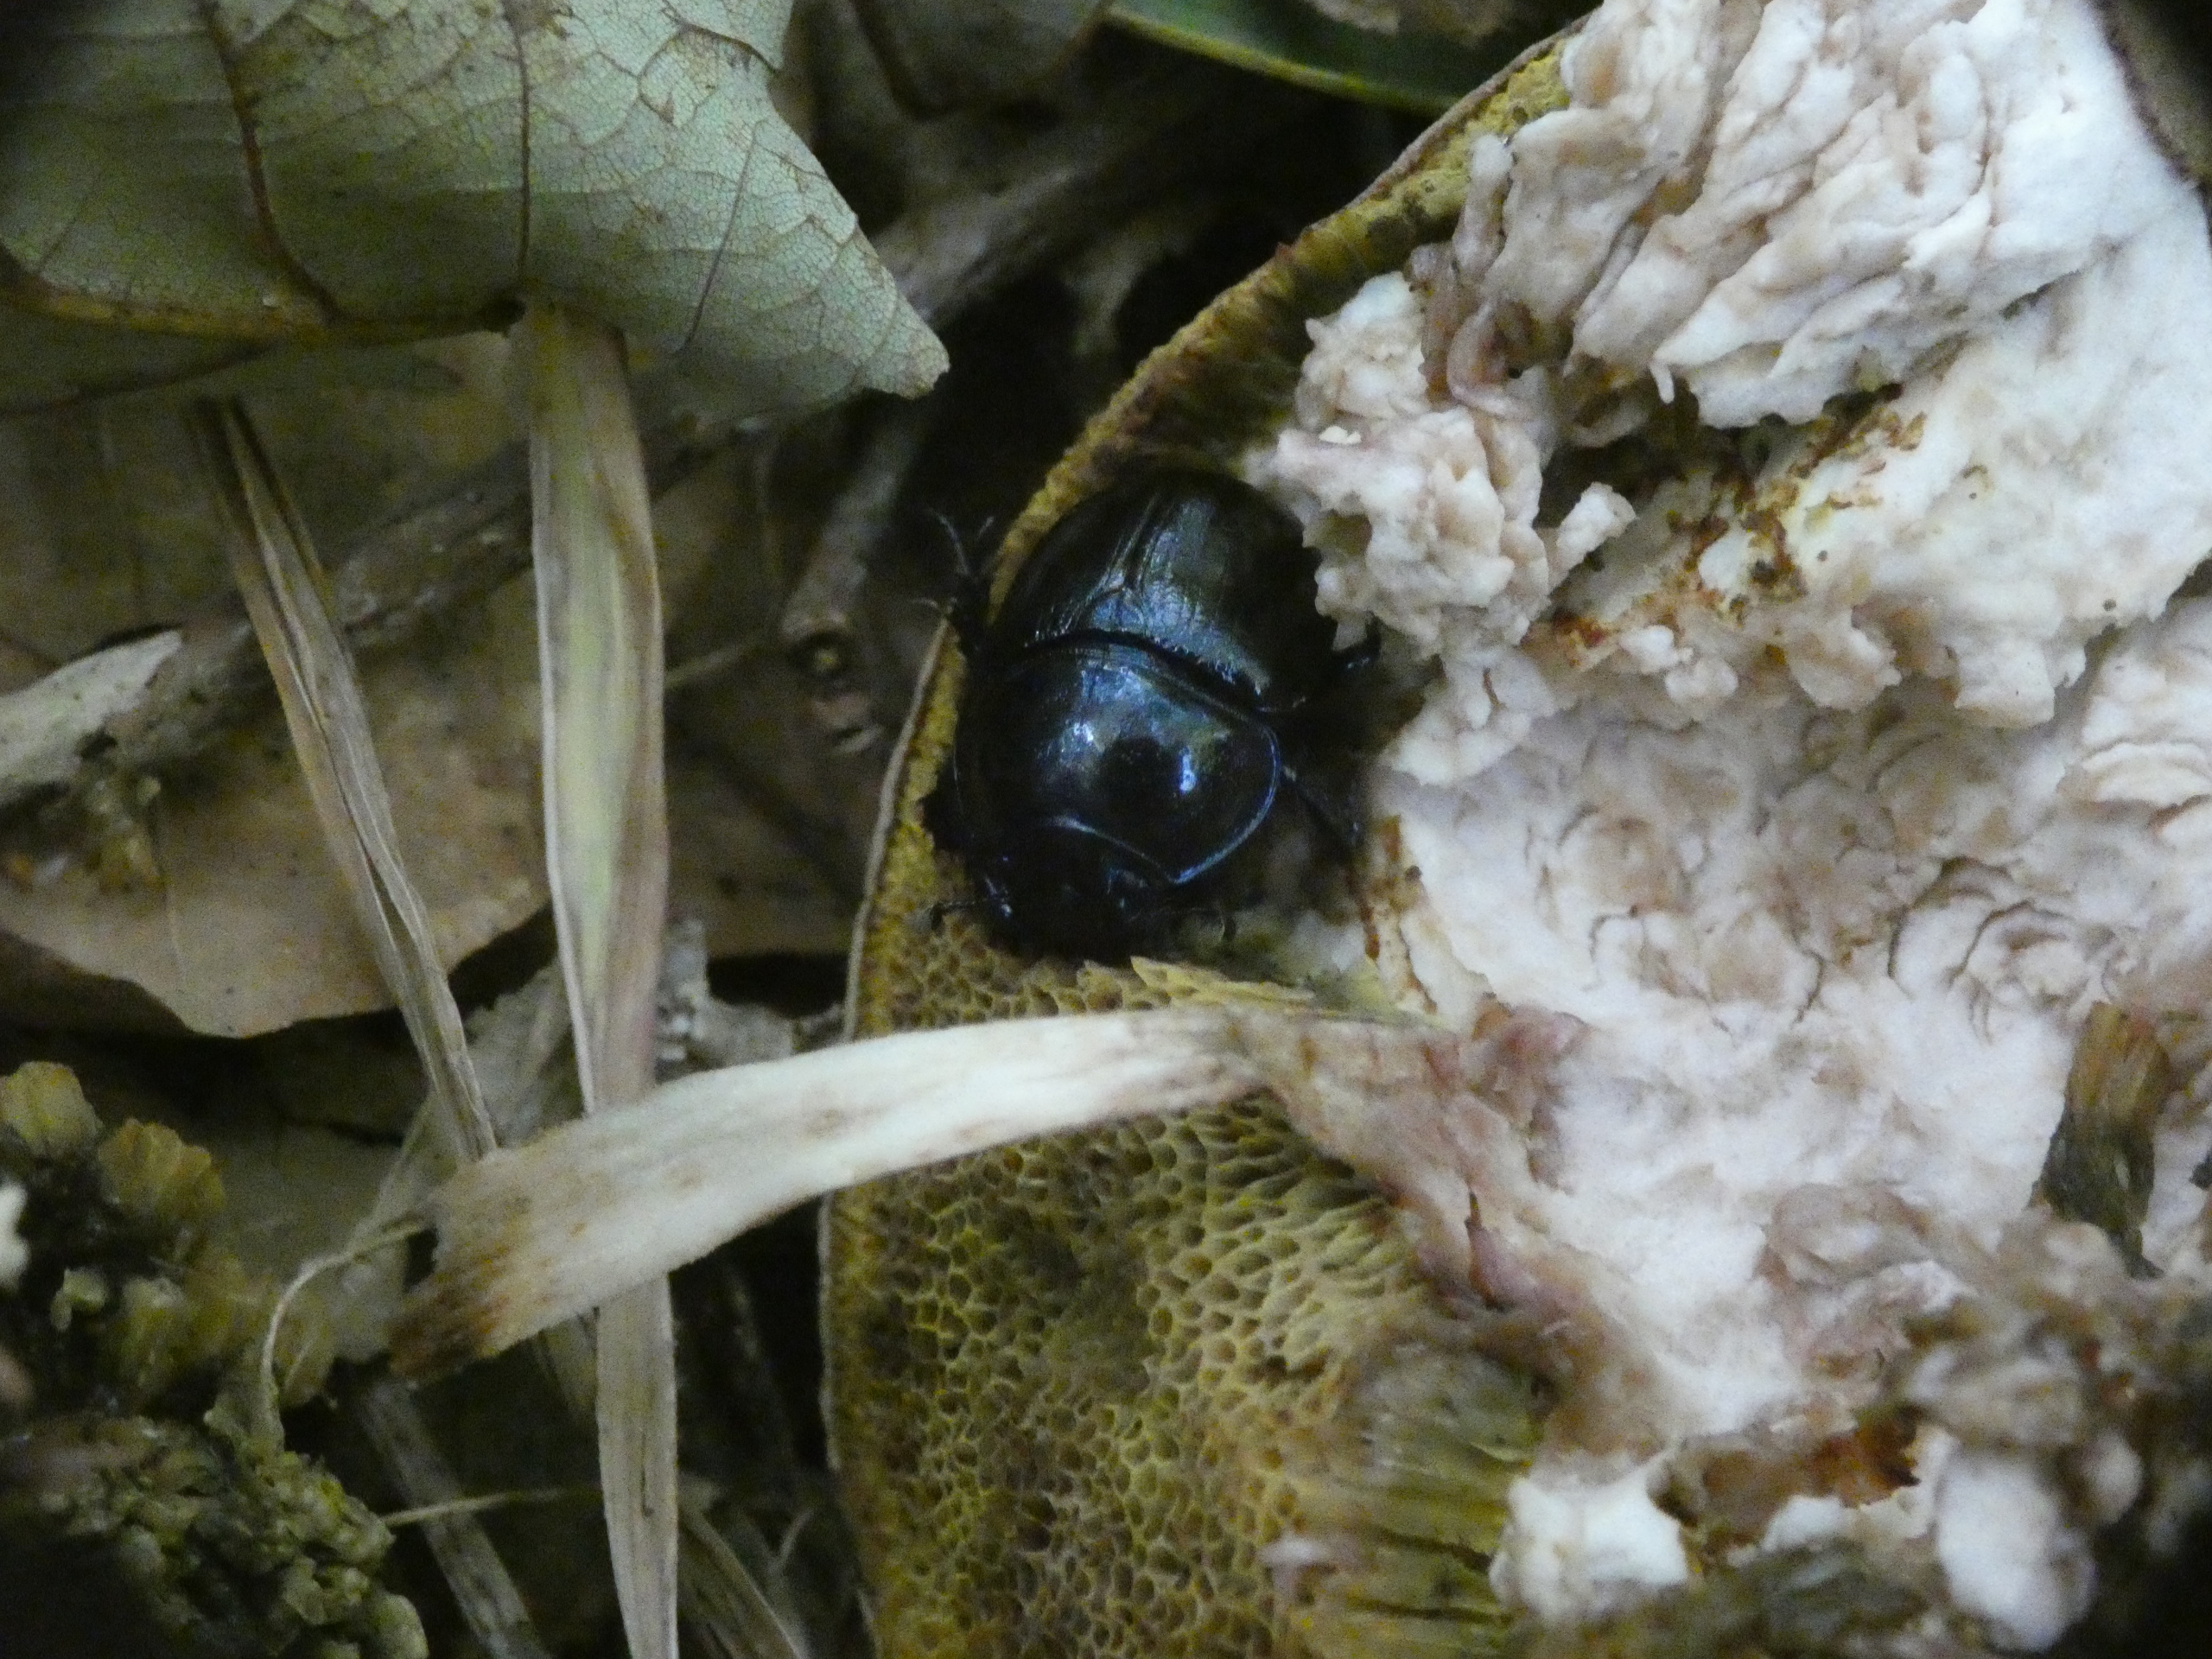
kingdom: Animalia
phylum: Arthropoda
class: Insecta
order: Coleoptera
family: Geotrupidae
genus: Anoplotrupes
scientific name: Anoplotrupes stercorosus
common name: Skovskarnbasse
